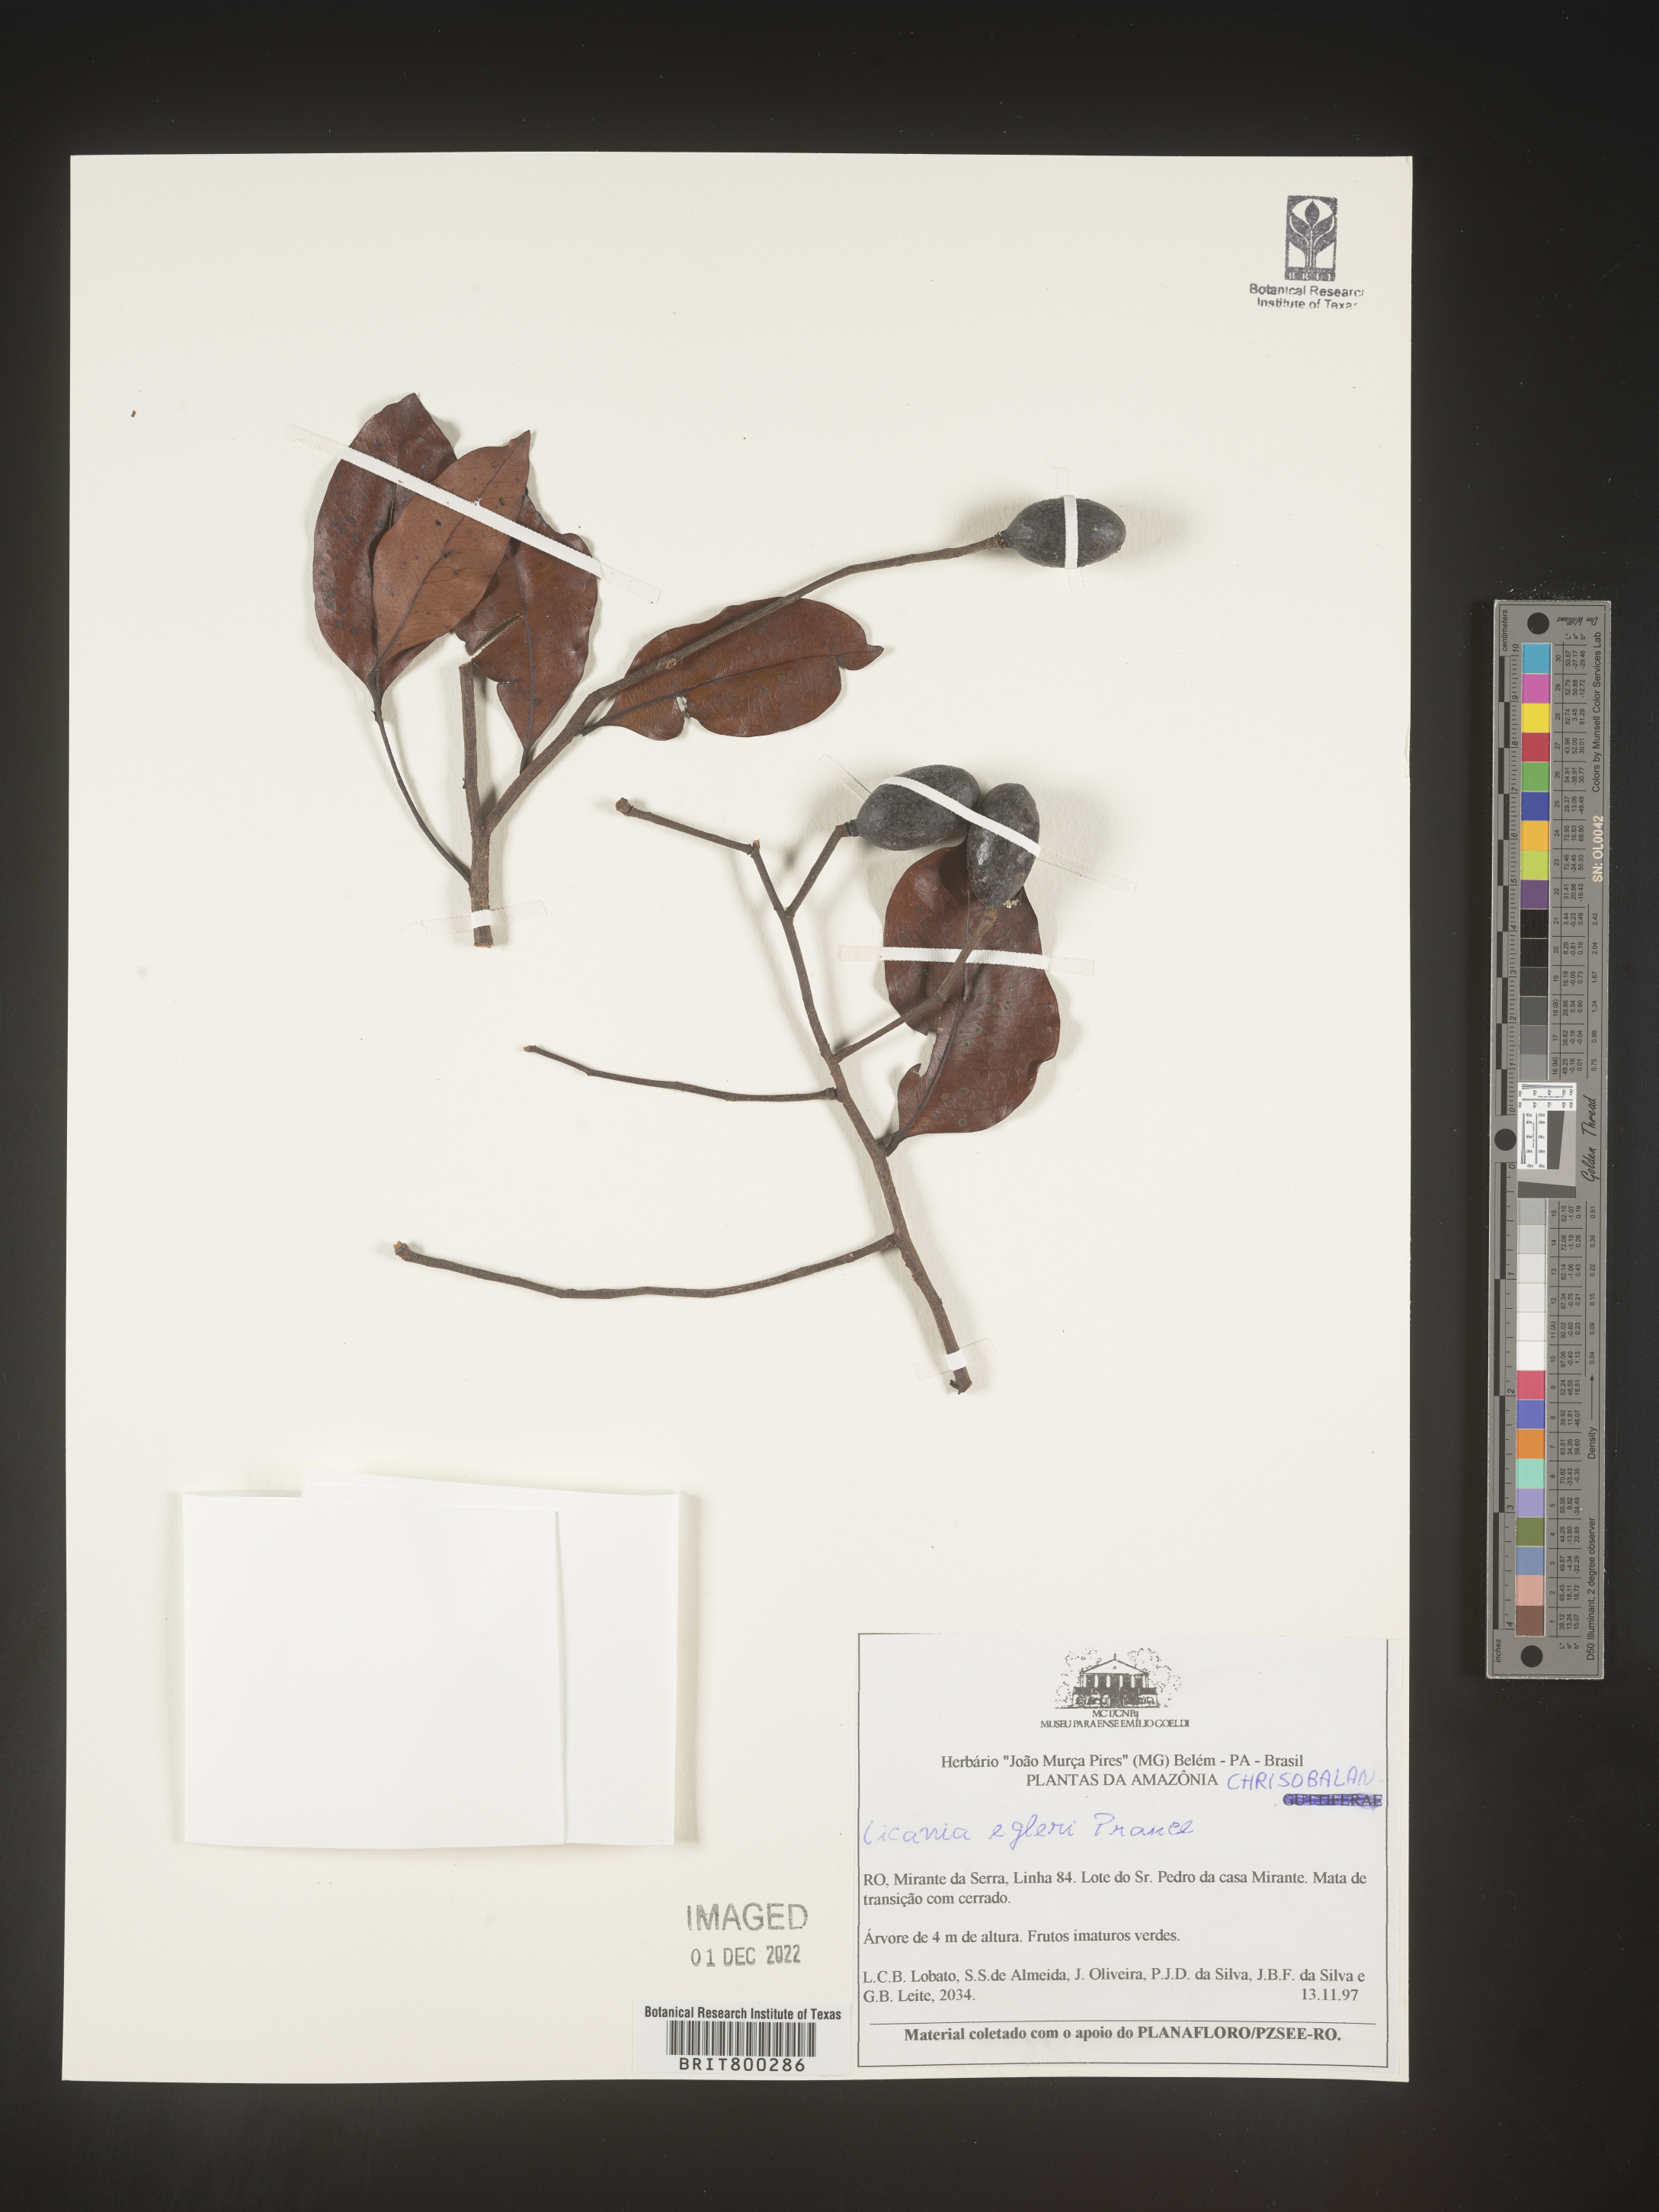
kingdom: Plantae
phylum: Tracheophyta
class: Magnoliopsida
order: Malpighiales
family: Chrysobalanaceae
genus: Geobalanus
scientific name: Geobalanus oblongifolius
